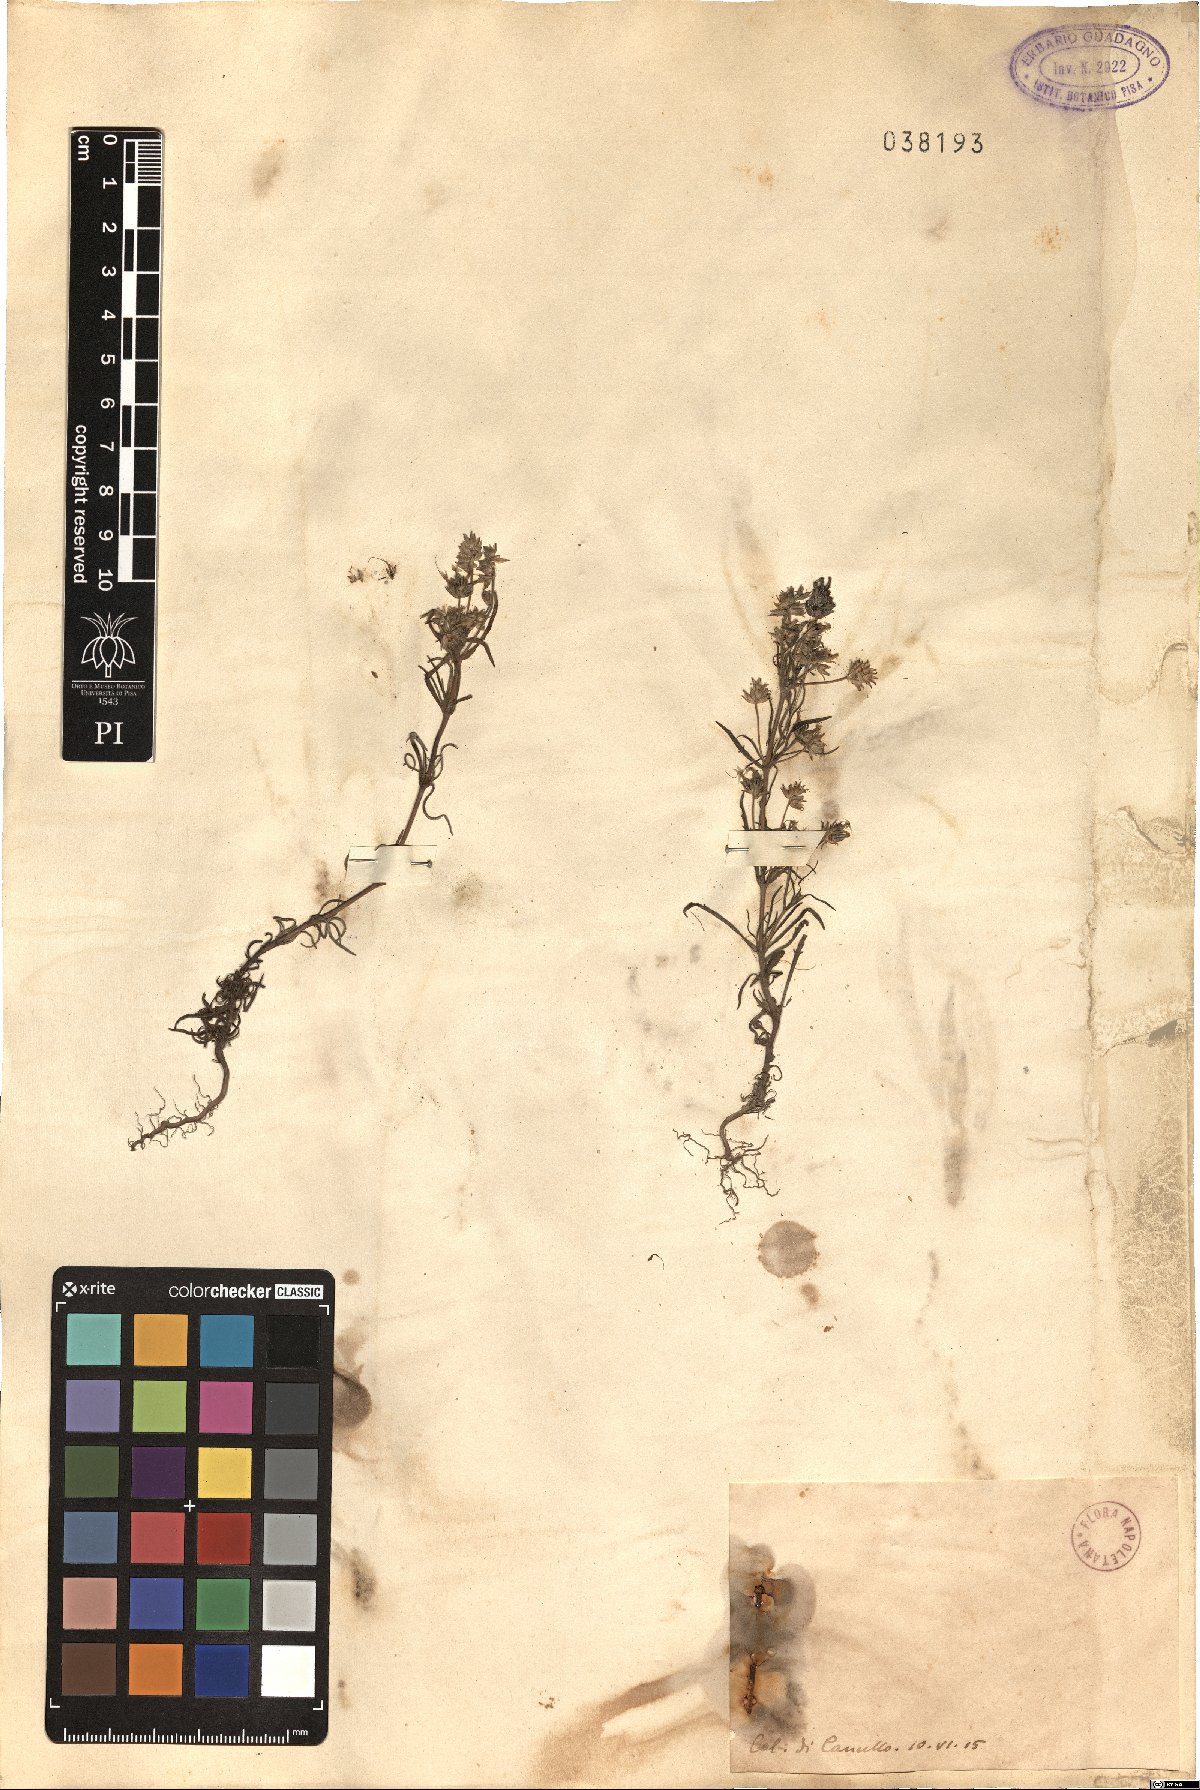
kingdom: Plantae
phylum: Tracheophyta
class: Magnoliopsida
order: Lamiales
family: Plantaginaceae
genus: Plantago
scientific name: Plantago
